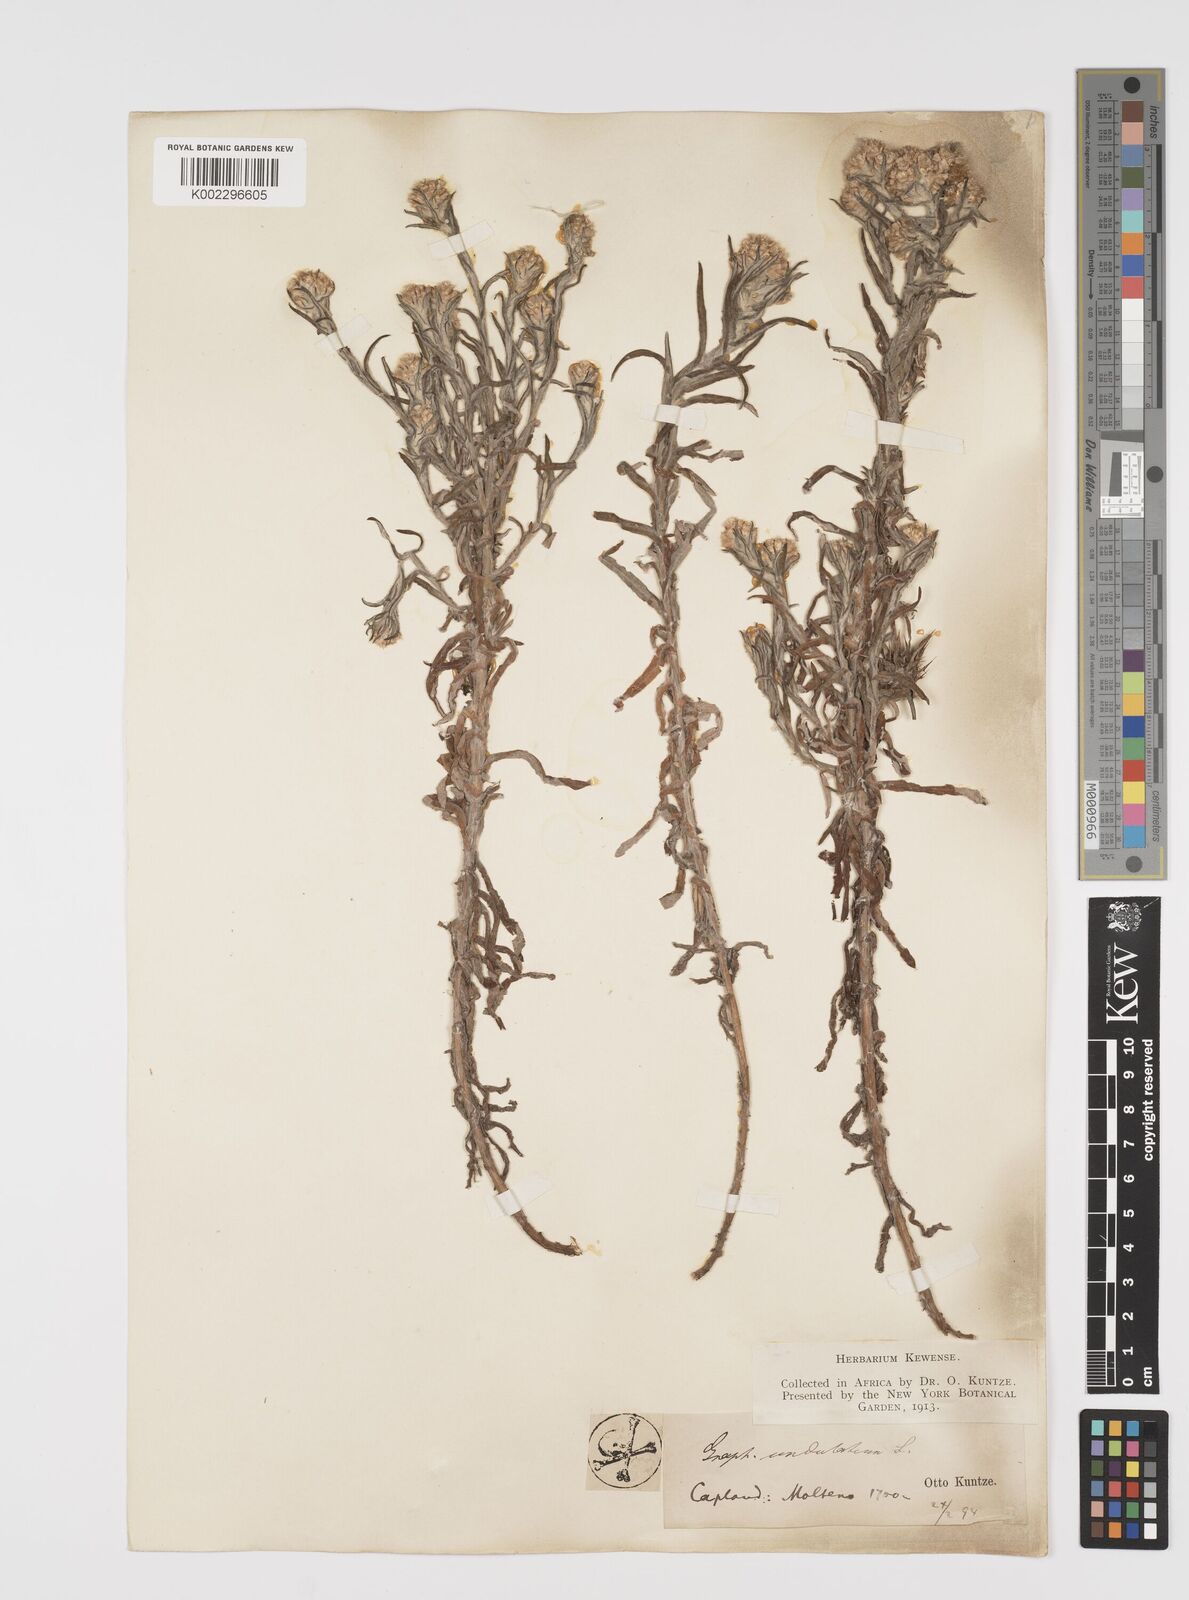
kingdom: Plantae
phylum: Tracheophyta
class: Magnoliopsida
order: Asterales
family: Asteraceae
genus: Pseudognaphalium
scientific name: Pseudognaphalium undulatum
